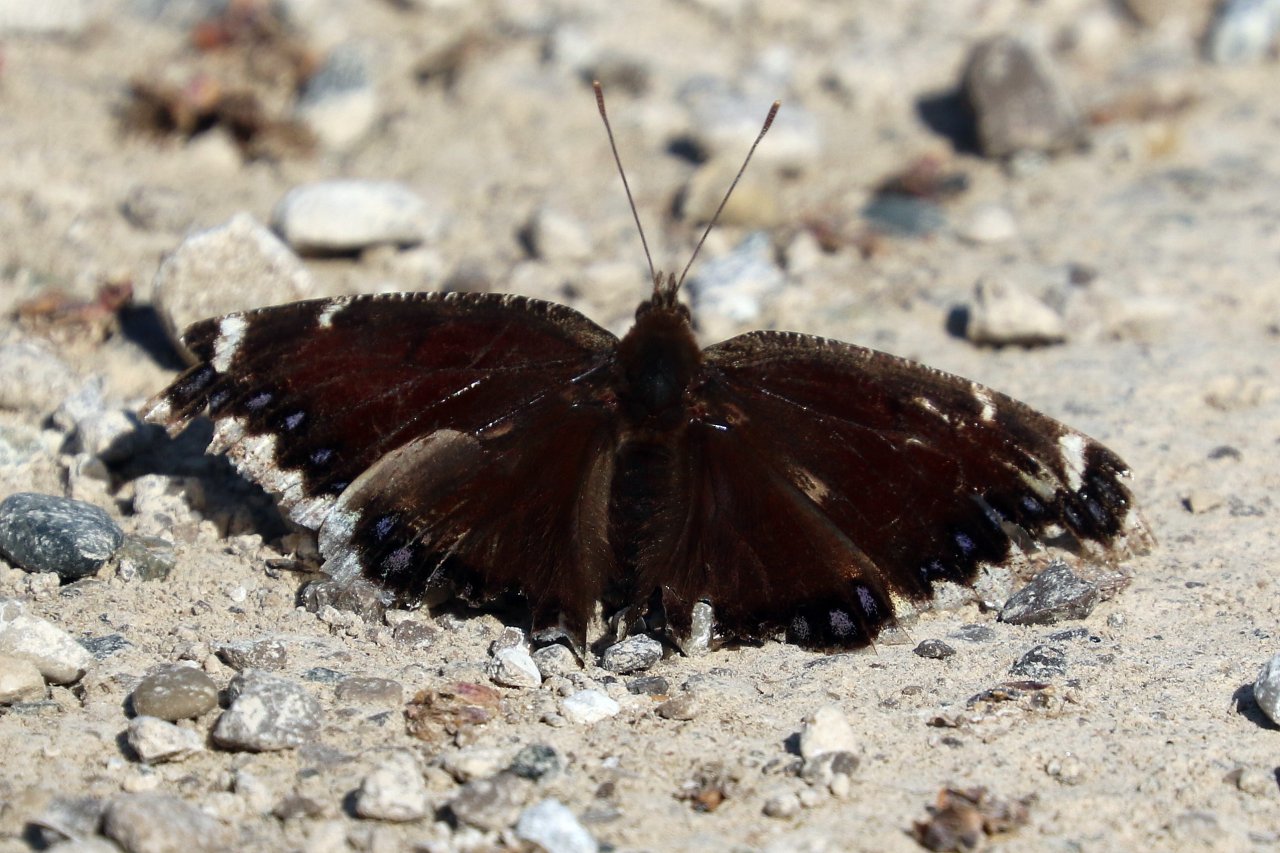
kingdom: Animalia
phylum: Arthropoda
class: Insecta
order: Lepidoptera
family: Nymphalidae
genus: Nymphalis
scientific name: Nymphalis antiopa
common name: Mourning Cloak
